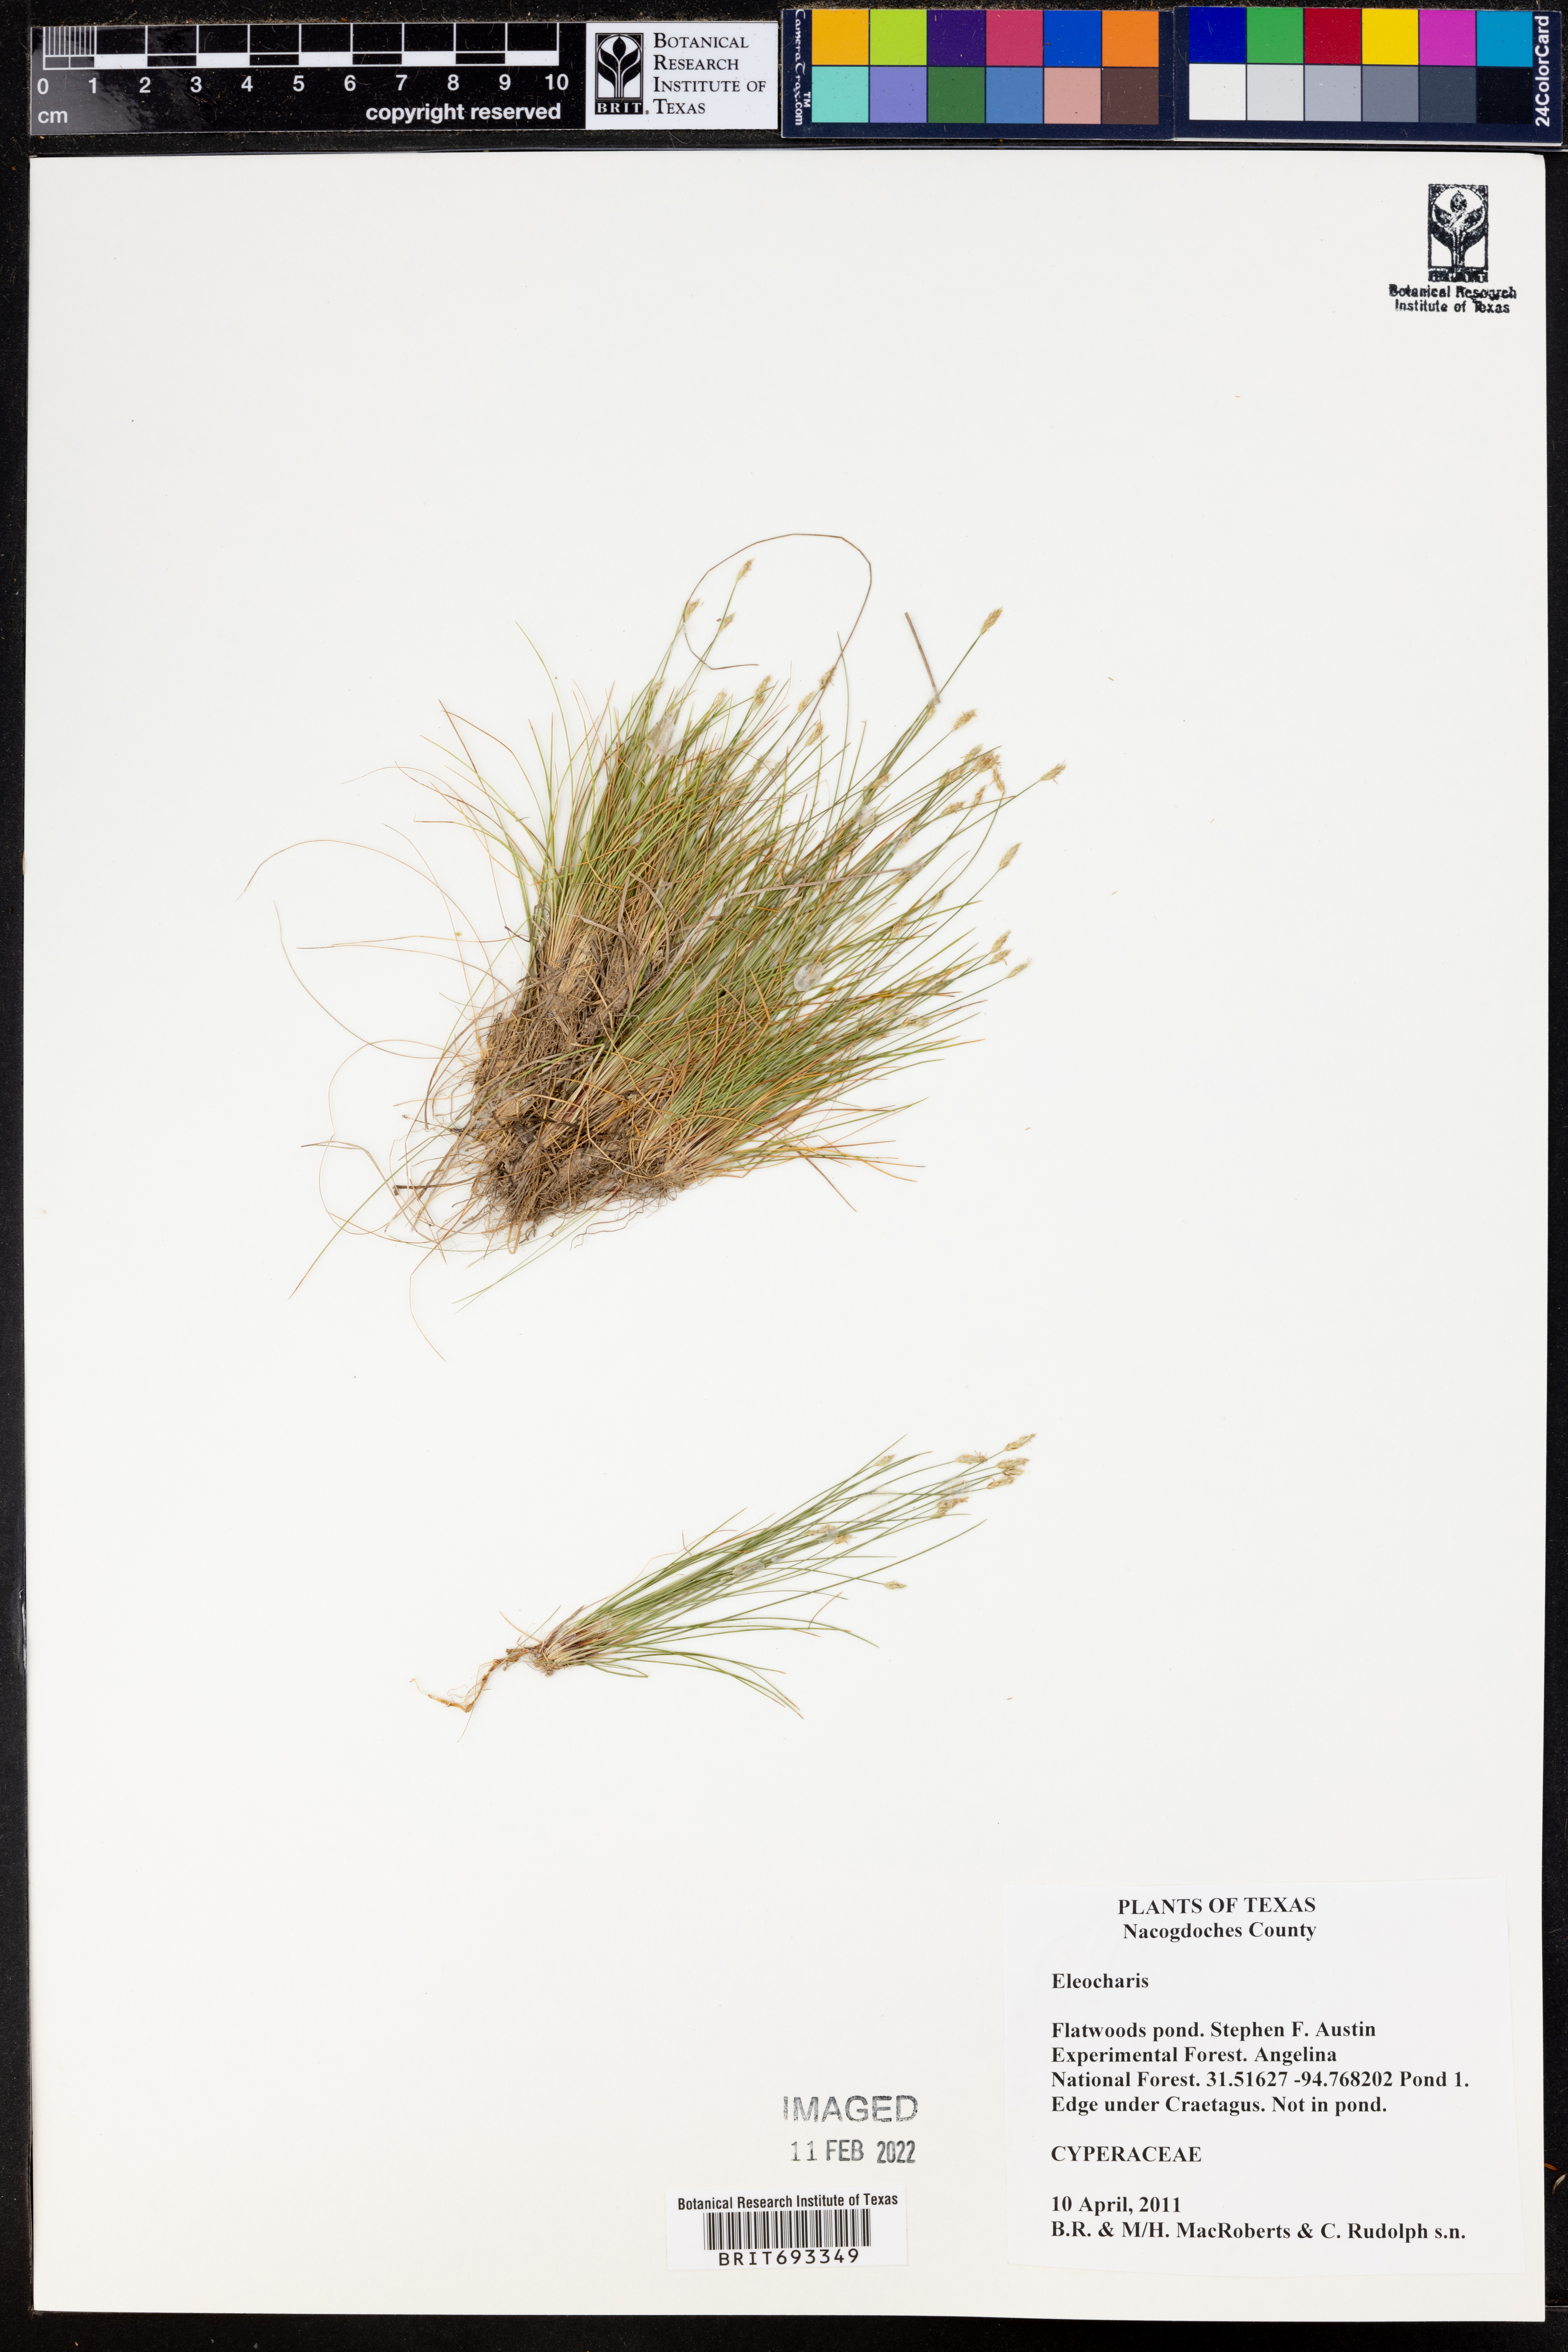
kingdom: Plantae
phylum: Tracheophyta
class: Liliopsida
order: Poales
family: Cyperaceae
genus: Eleocharis
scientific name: Eleocharis
